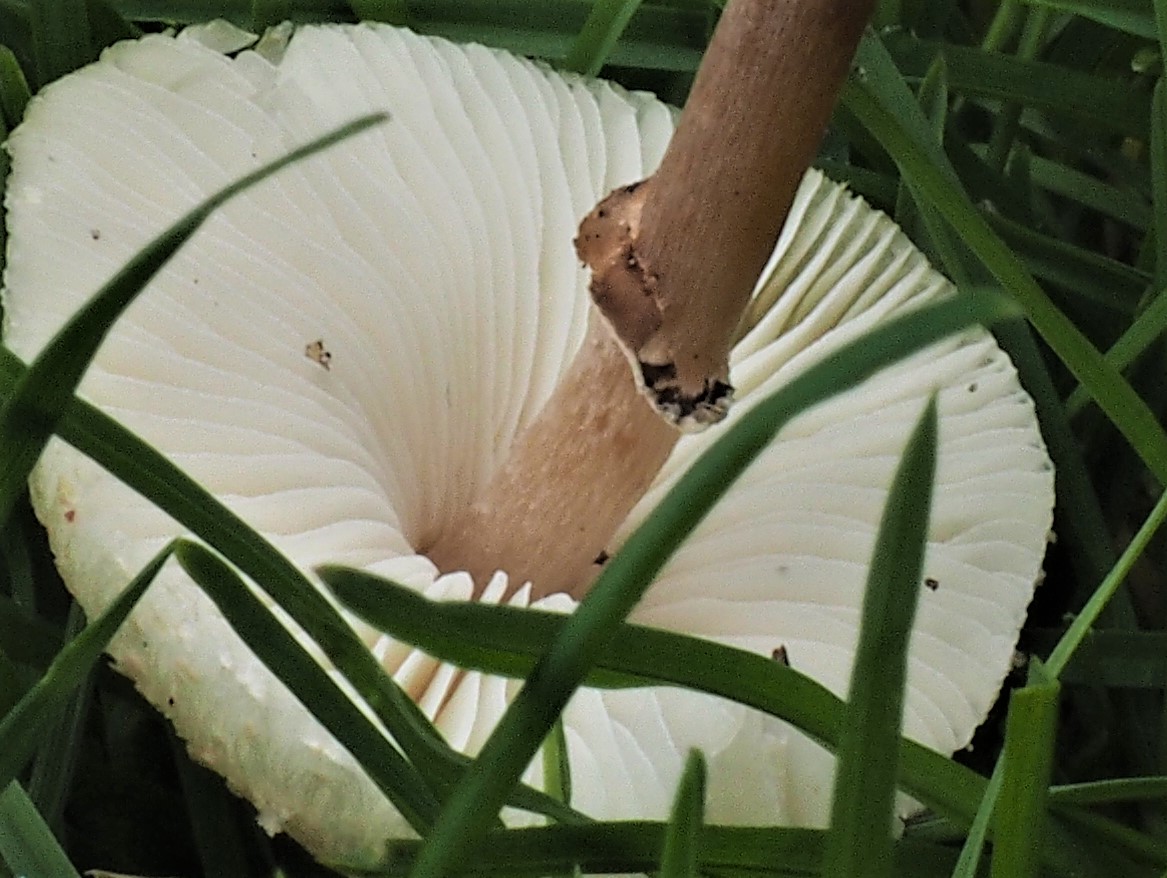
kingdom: Fungi
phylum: Basidiomycota
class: Agaricomycetes
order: Agaricales
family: Agaricaceae
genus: Lepiota
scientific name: Lepiota lilacea
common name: lillabrun parasolhat
